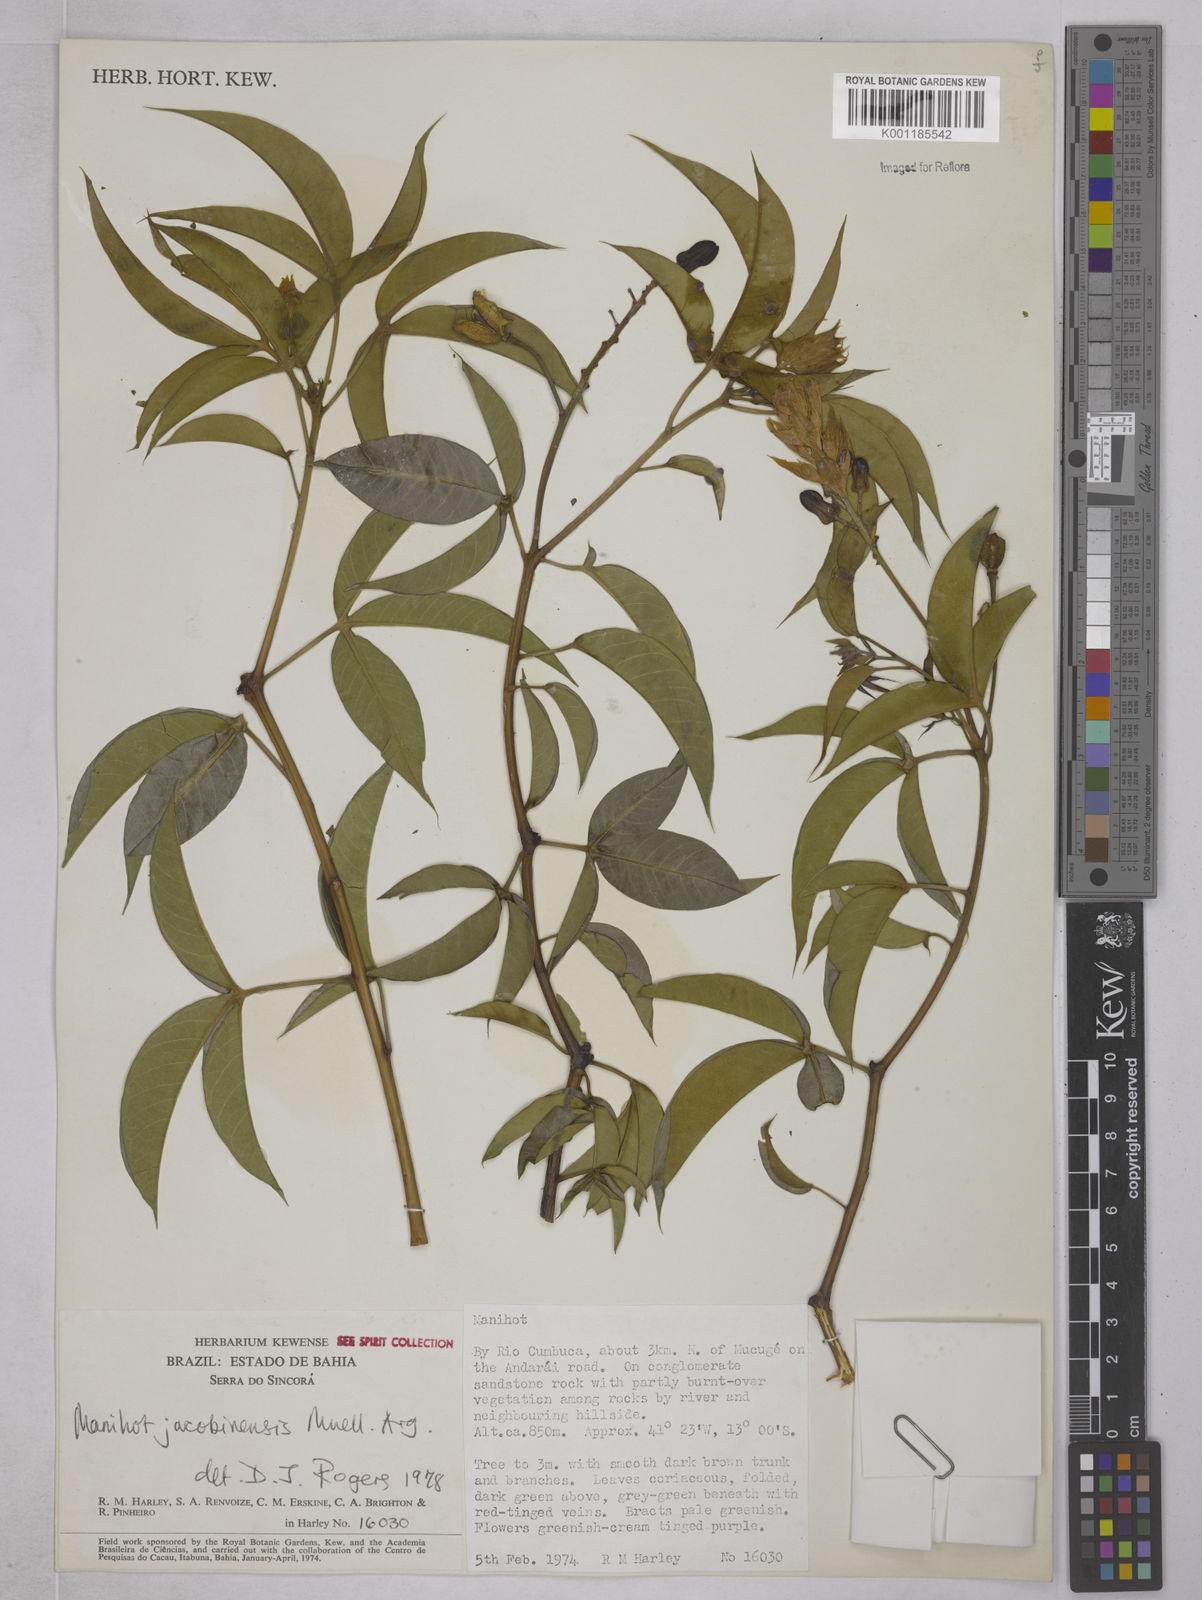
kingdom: Plantae
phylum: Tracheophyta
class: Magnoliopsida
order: Malpighiales
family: Euphorbiaceae
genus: Manihot
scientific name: Manihot
